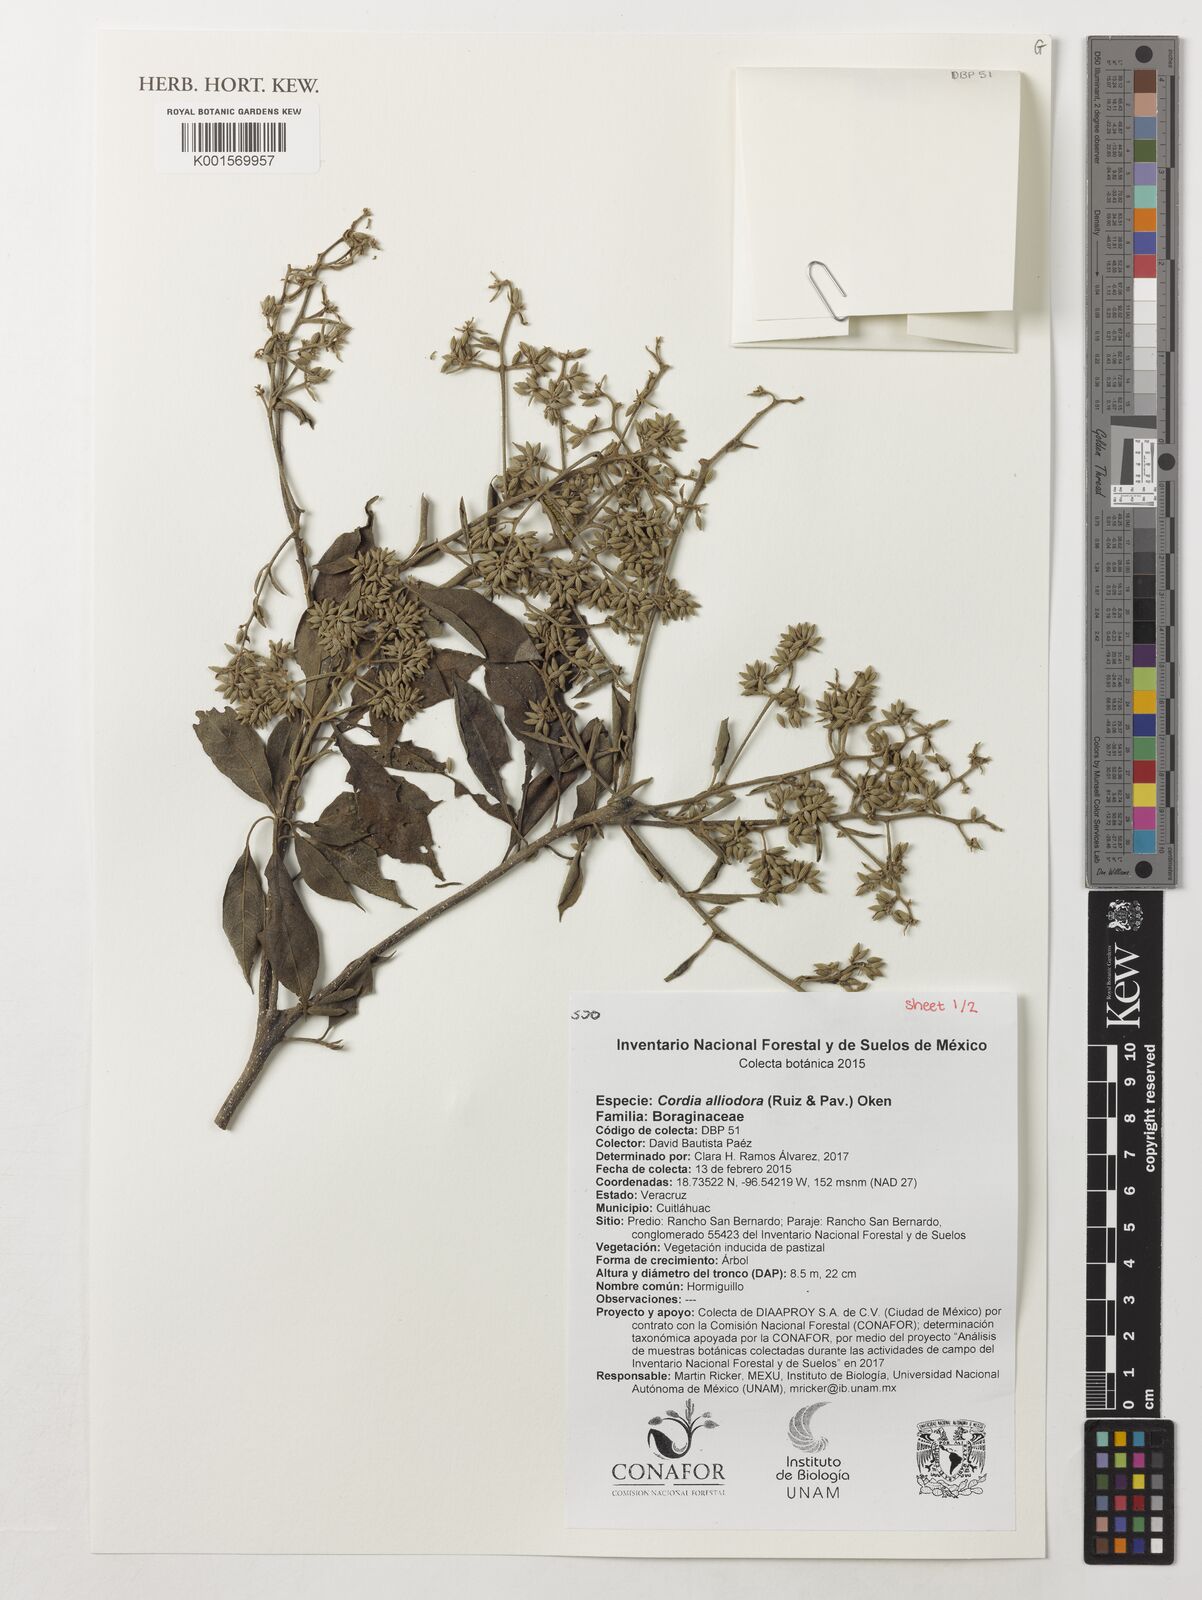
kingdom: Plantae
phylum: Tracheophyta
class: Magnoliopsida
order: Boraginales
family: Cordiaceae
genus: Cordia
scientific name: Cordia alliodora
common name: Spanish elm
